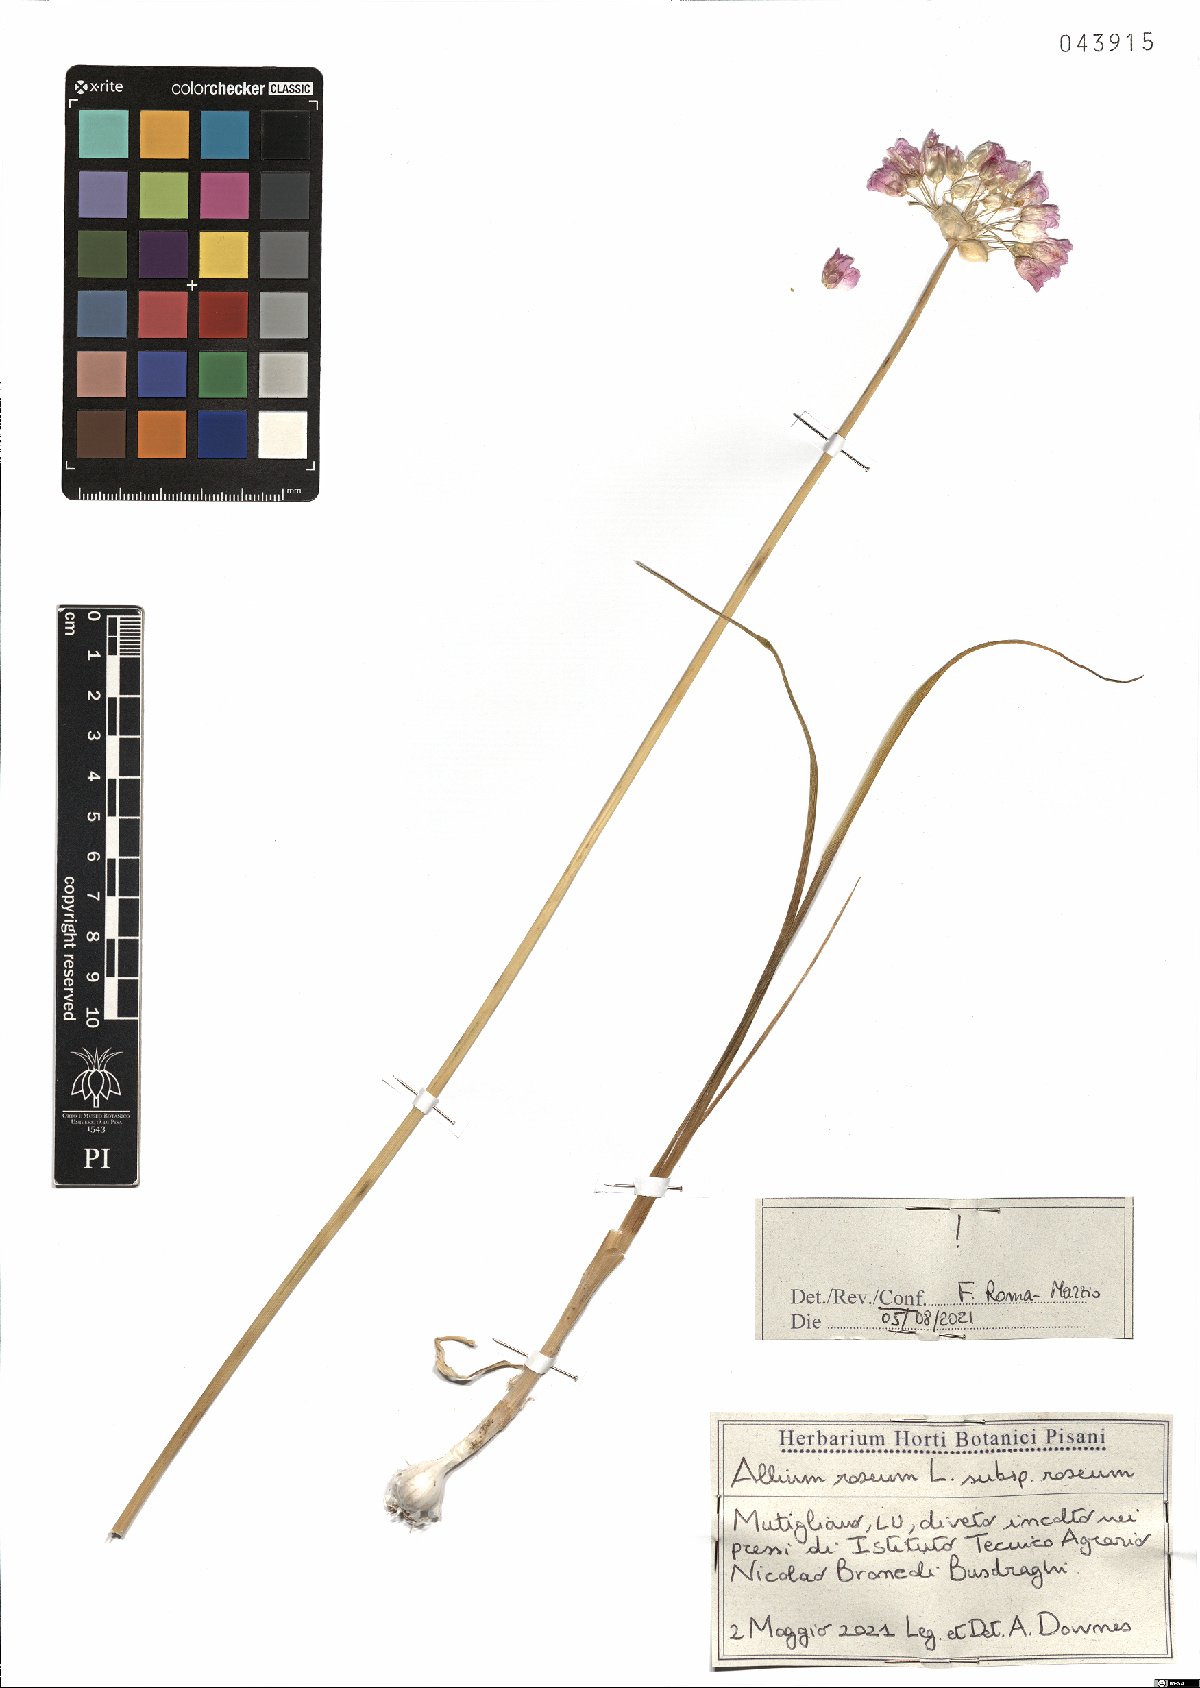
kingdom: Plantae
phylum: Tracheophyta
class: Liliopsida
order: Asparagales
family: Amaryllidaceae
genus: Allium
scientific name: Allium roseum
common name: Rosy garlic
